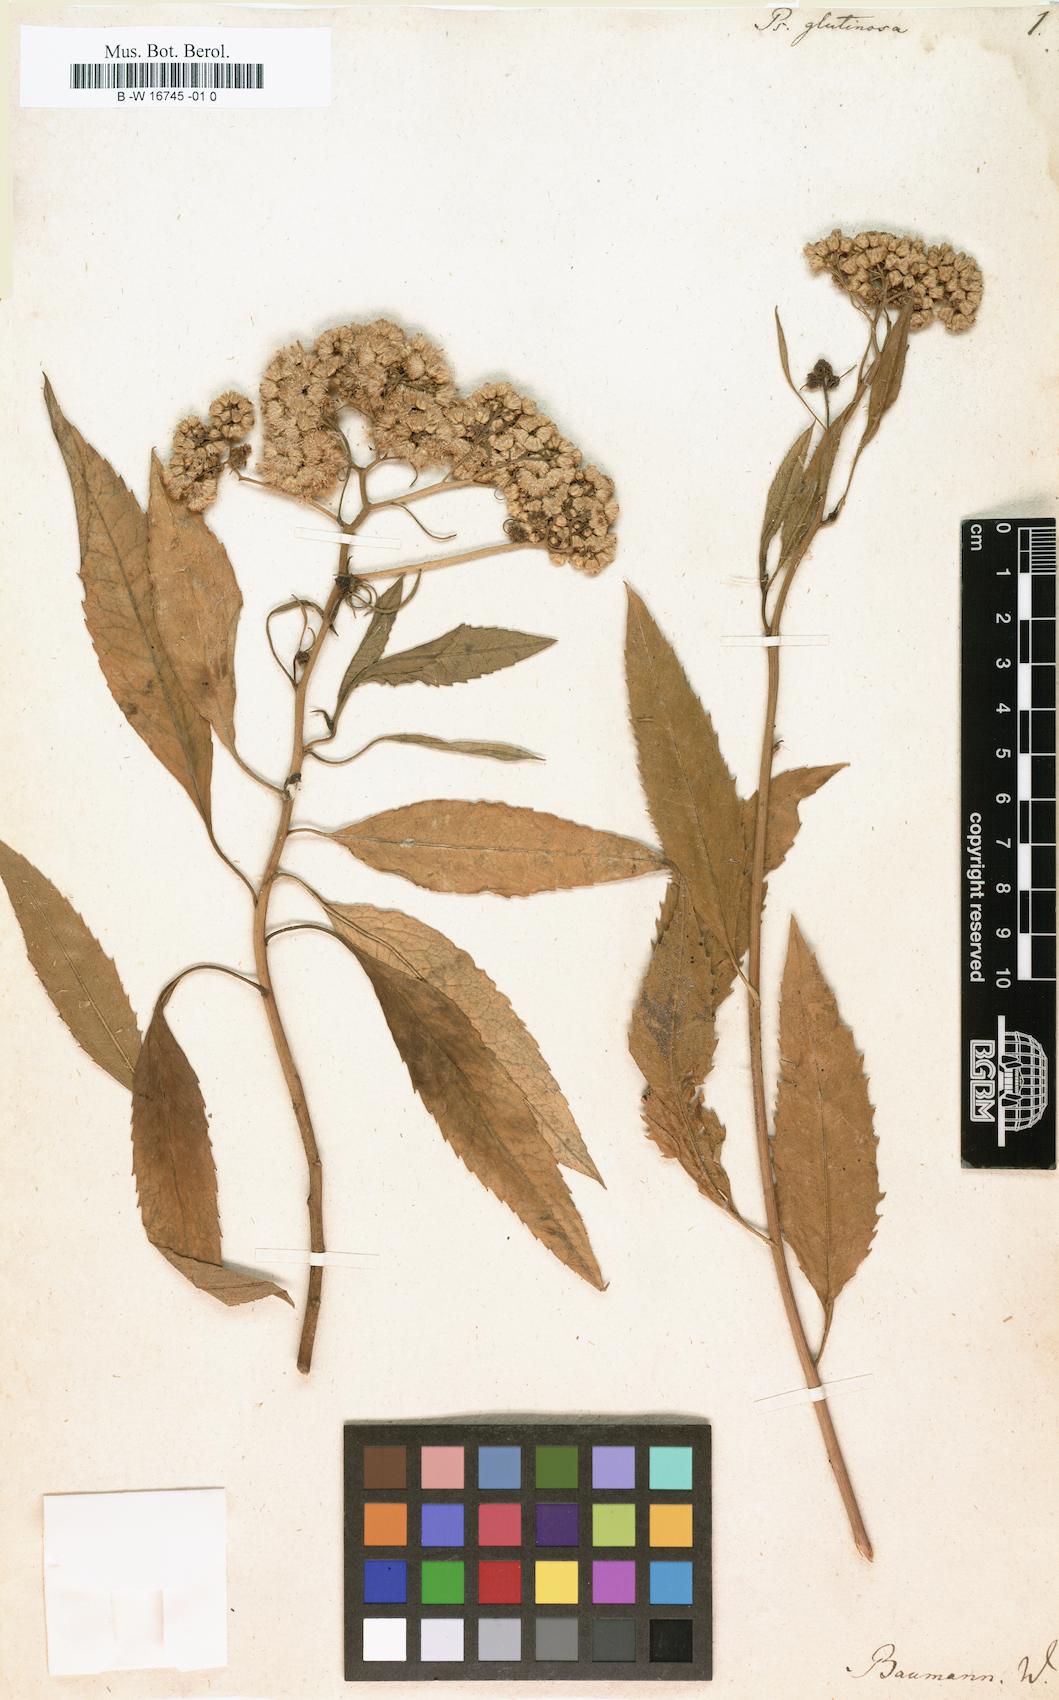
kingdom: Plantae
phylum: Tracheophyta
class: Magnoliopsida
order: Asterales
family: Asteraceae
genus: Psiadia
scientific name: Psiadia glutinosa
